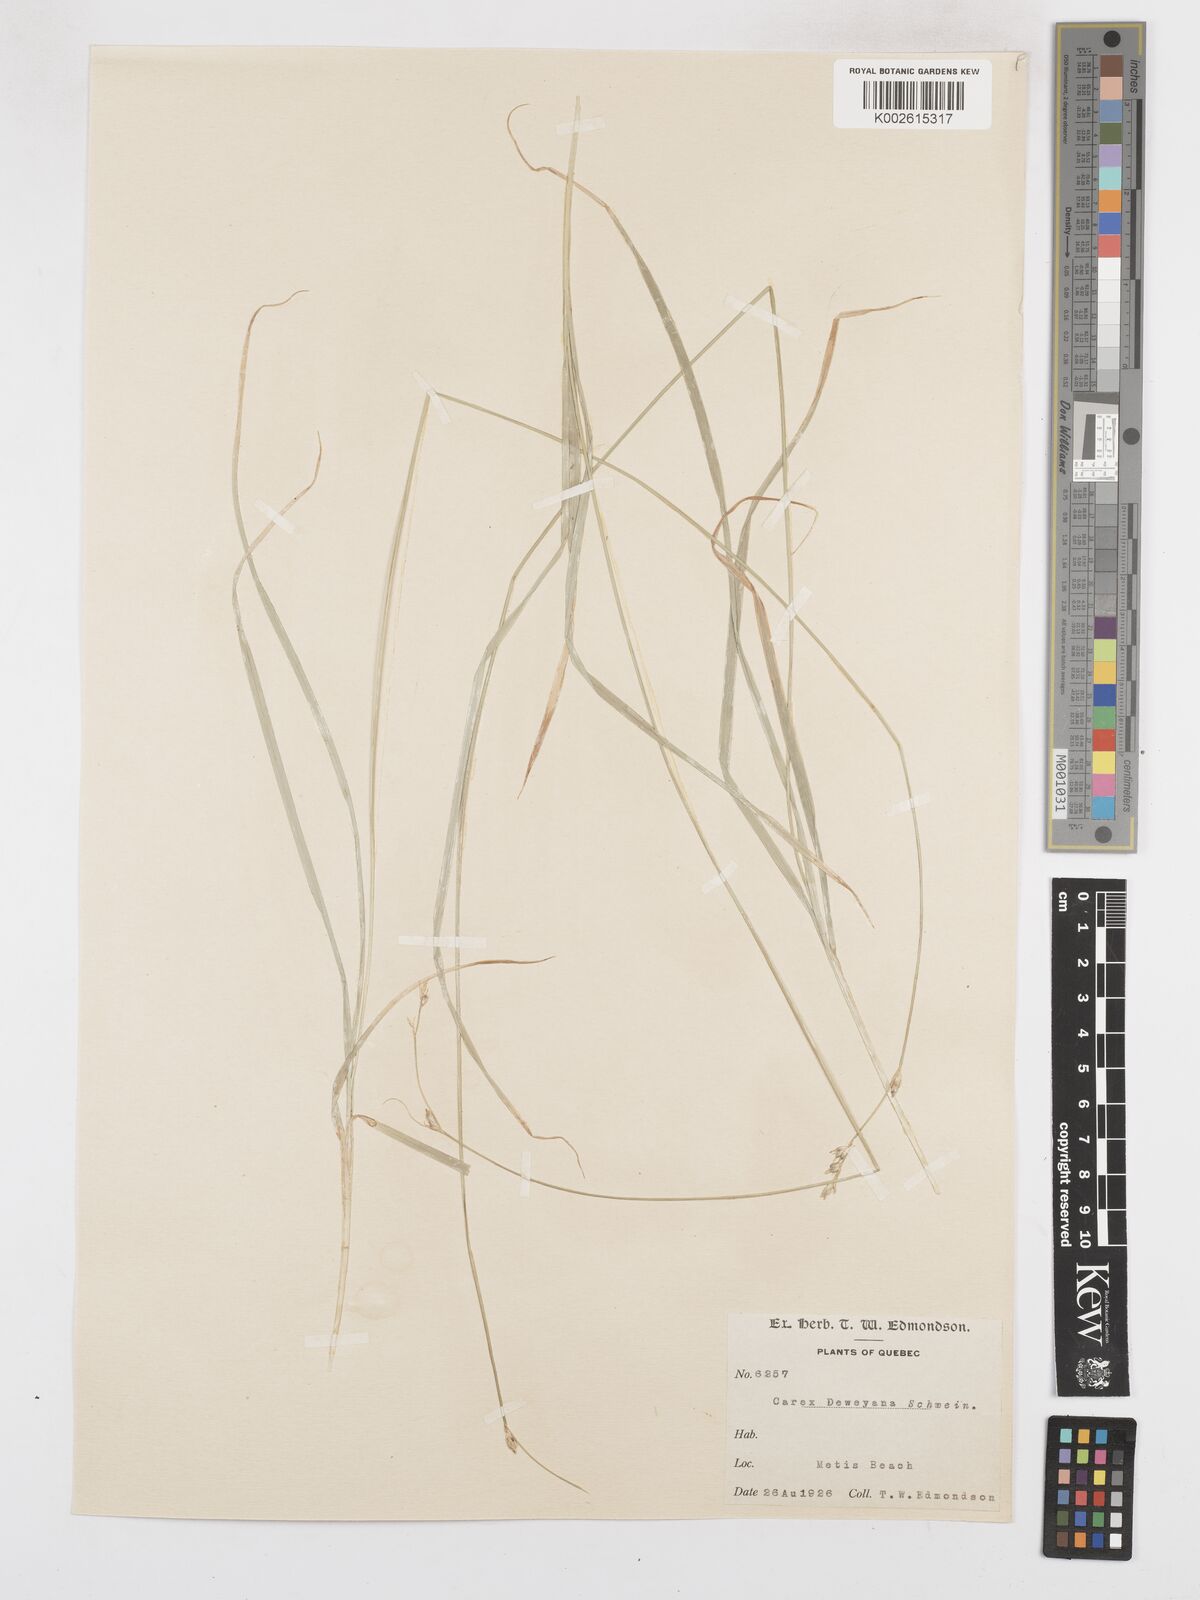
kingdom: Plantae
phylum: Tracheophyta
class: Liliopsida
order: Poales
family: Cyperaceae
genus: Carex
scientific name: Carex deweyana
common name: Dewey's sedge
